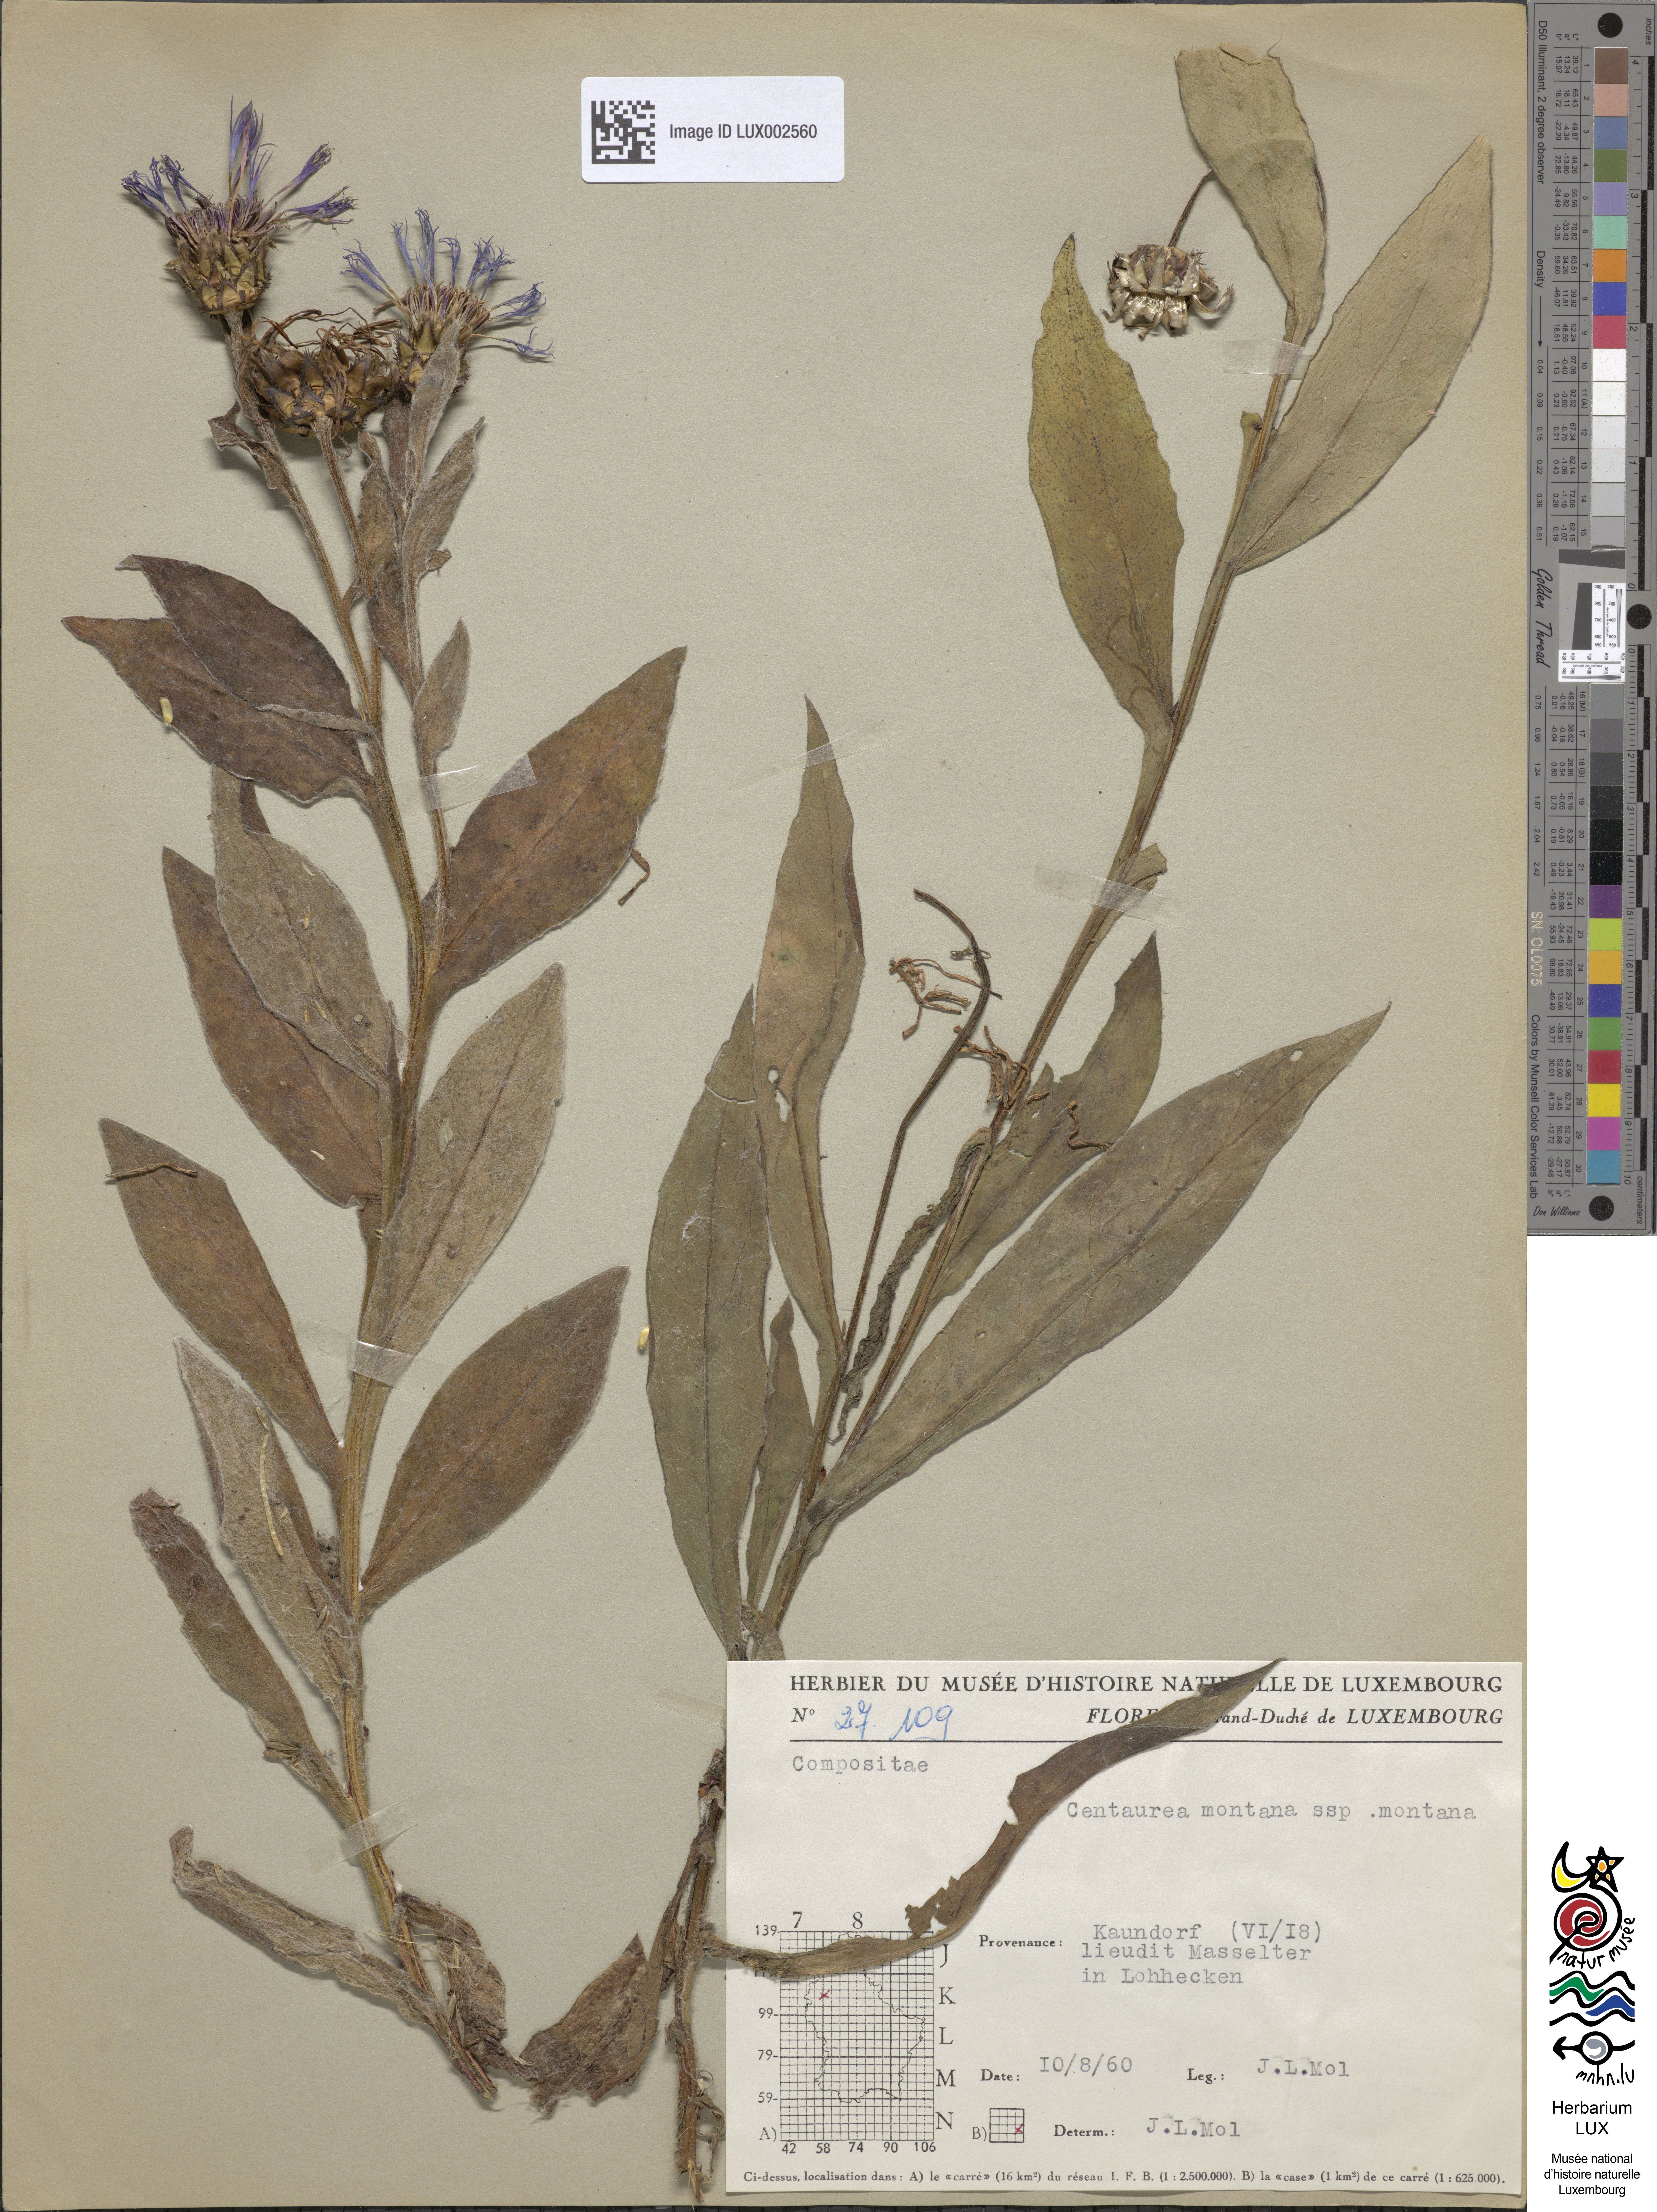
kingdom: Plantae
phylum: Tracheophyta
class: Magnoliopsida
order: Asterales
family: Asteraceae
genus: Centaurea
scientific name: Centaurea montana
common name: Perennial cornflower
